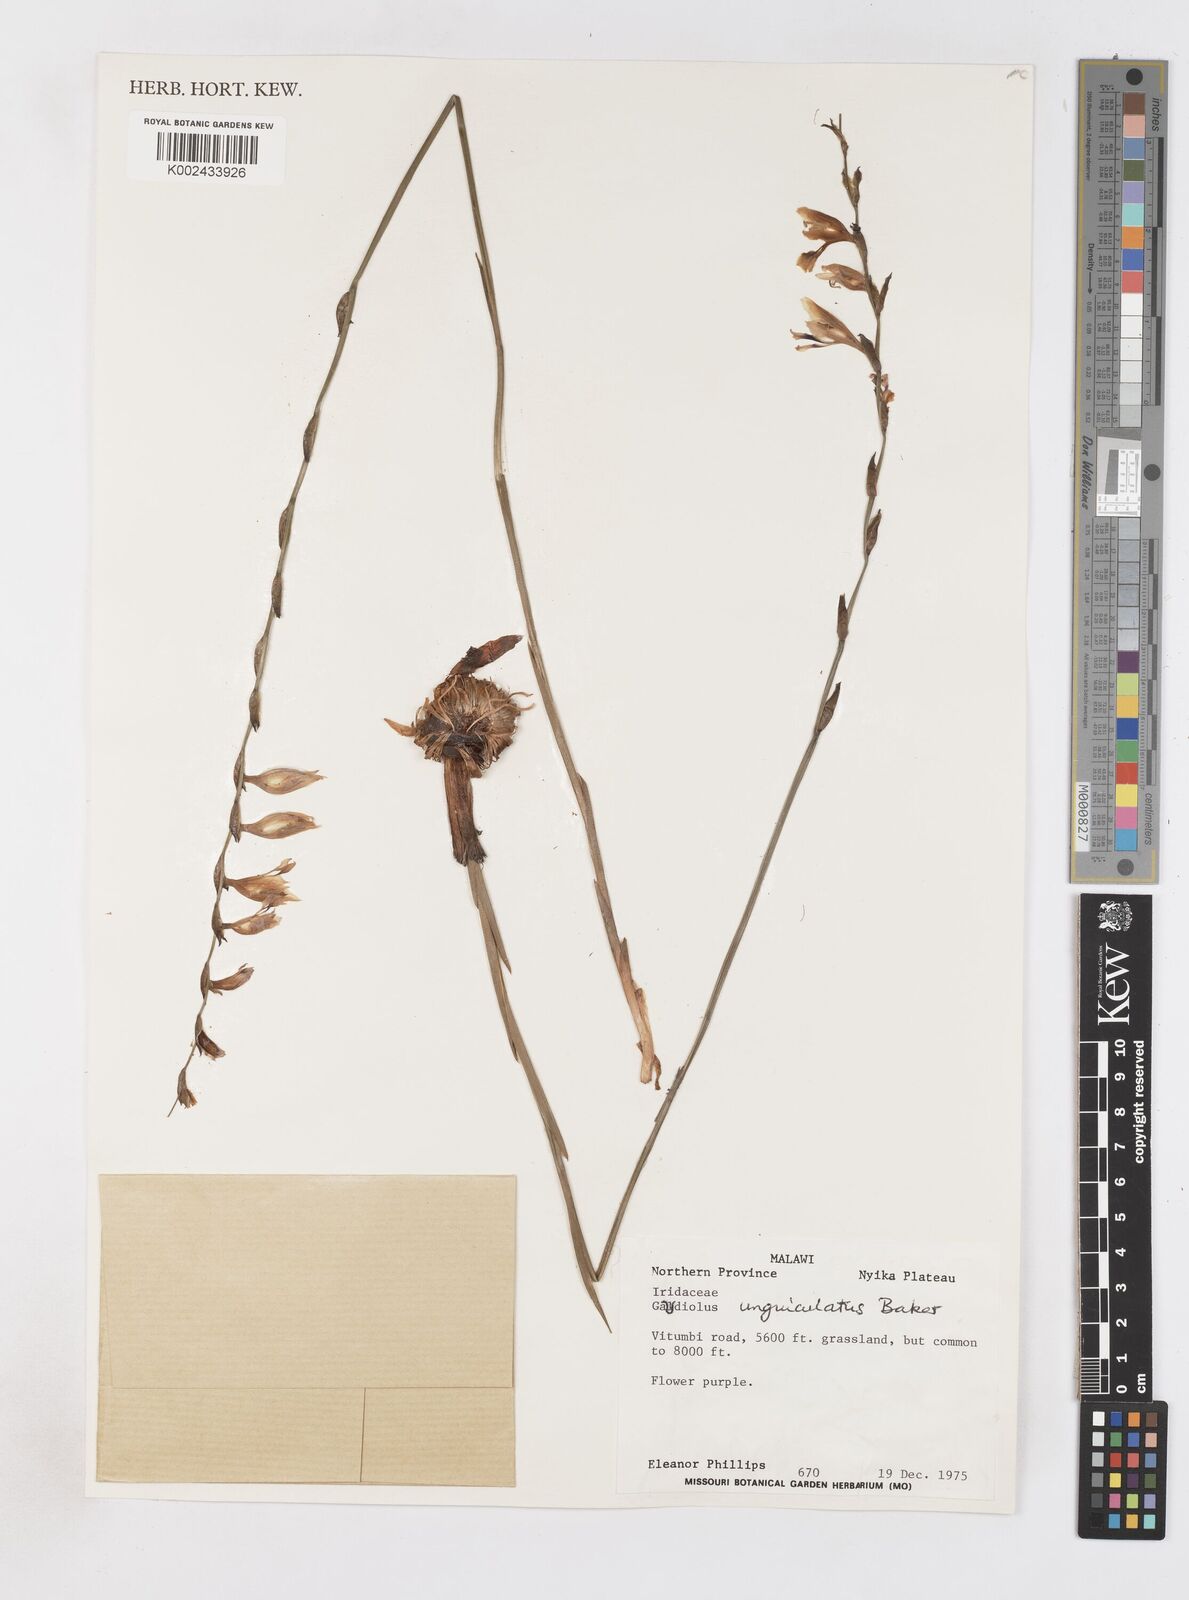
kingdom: Plantae
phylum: Tracheophyta
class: Liliopsida
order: Asparagales
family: Iridaceae
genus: Gladiolus
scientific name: Gladiolus atropurpureus
